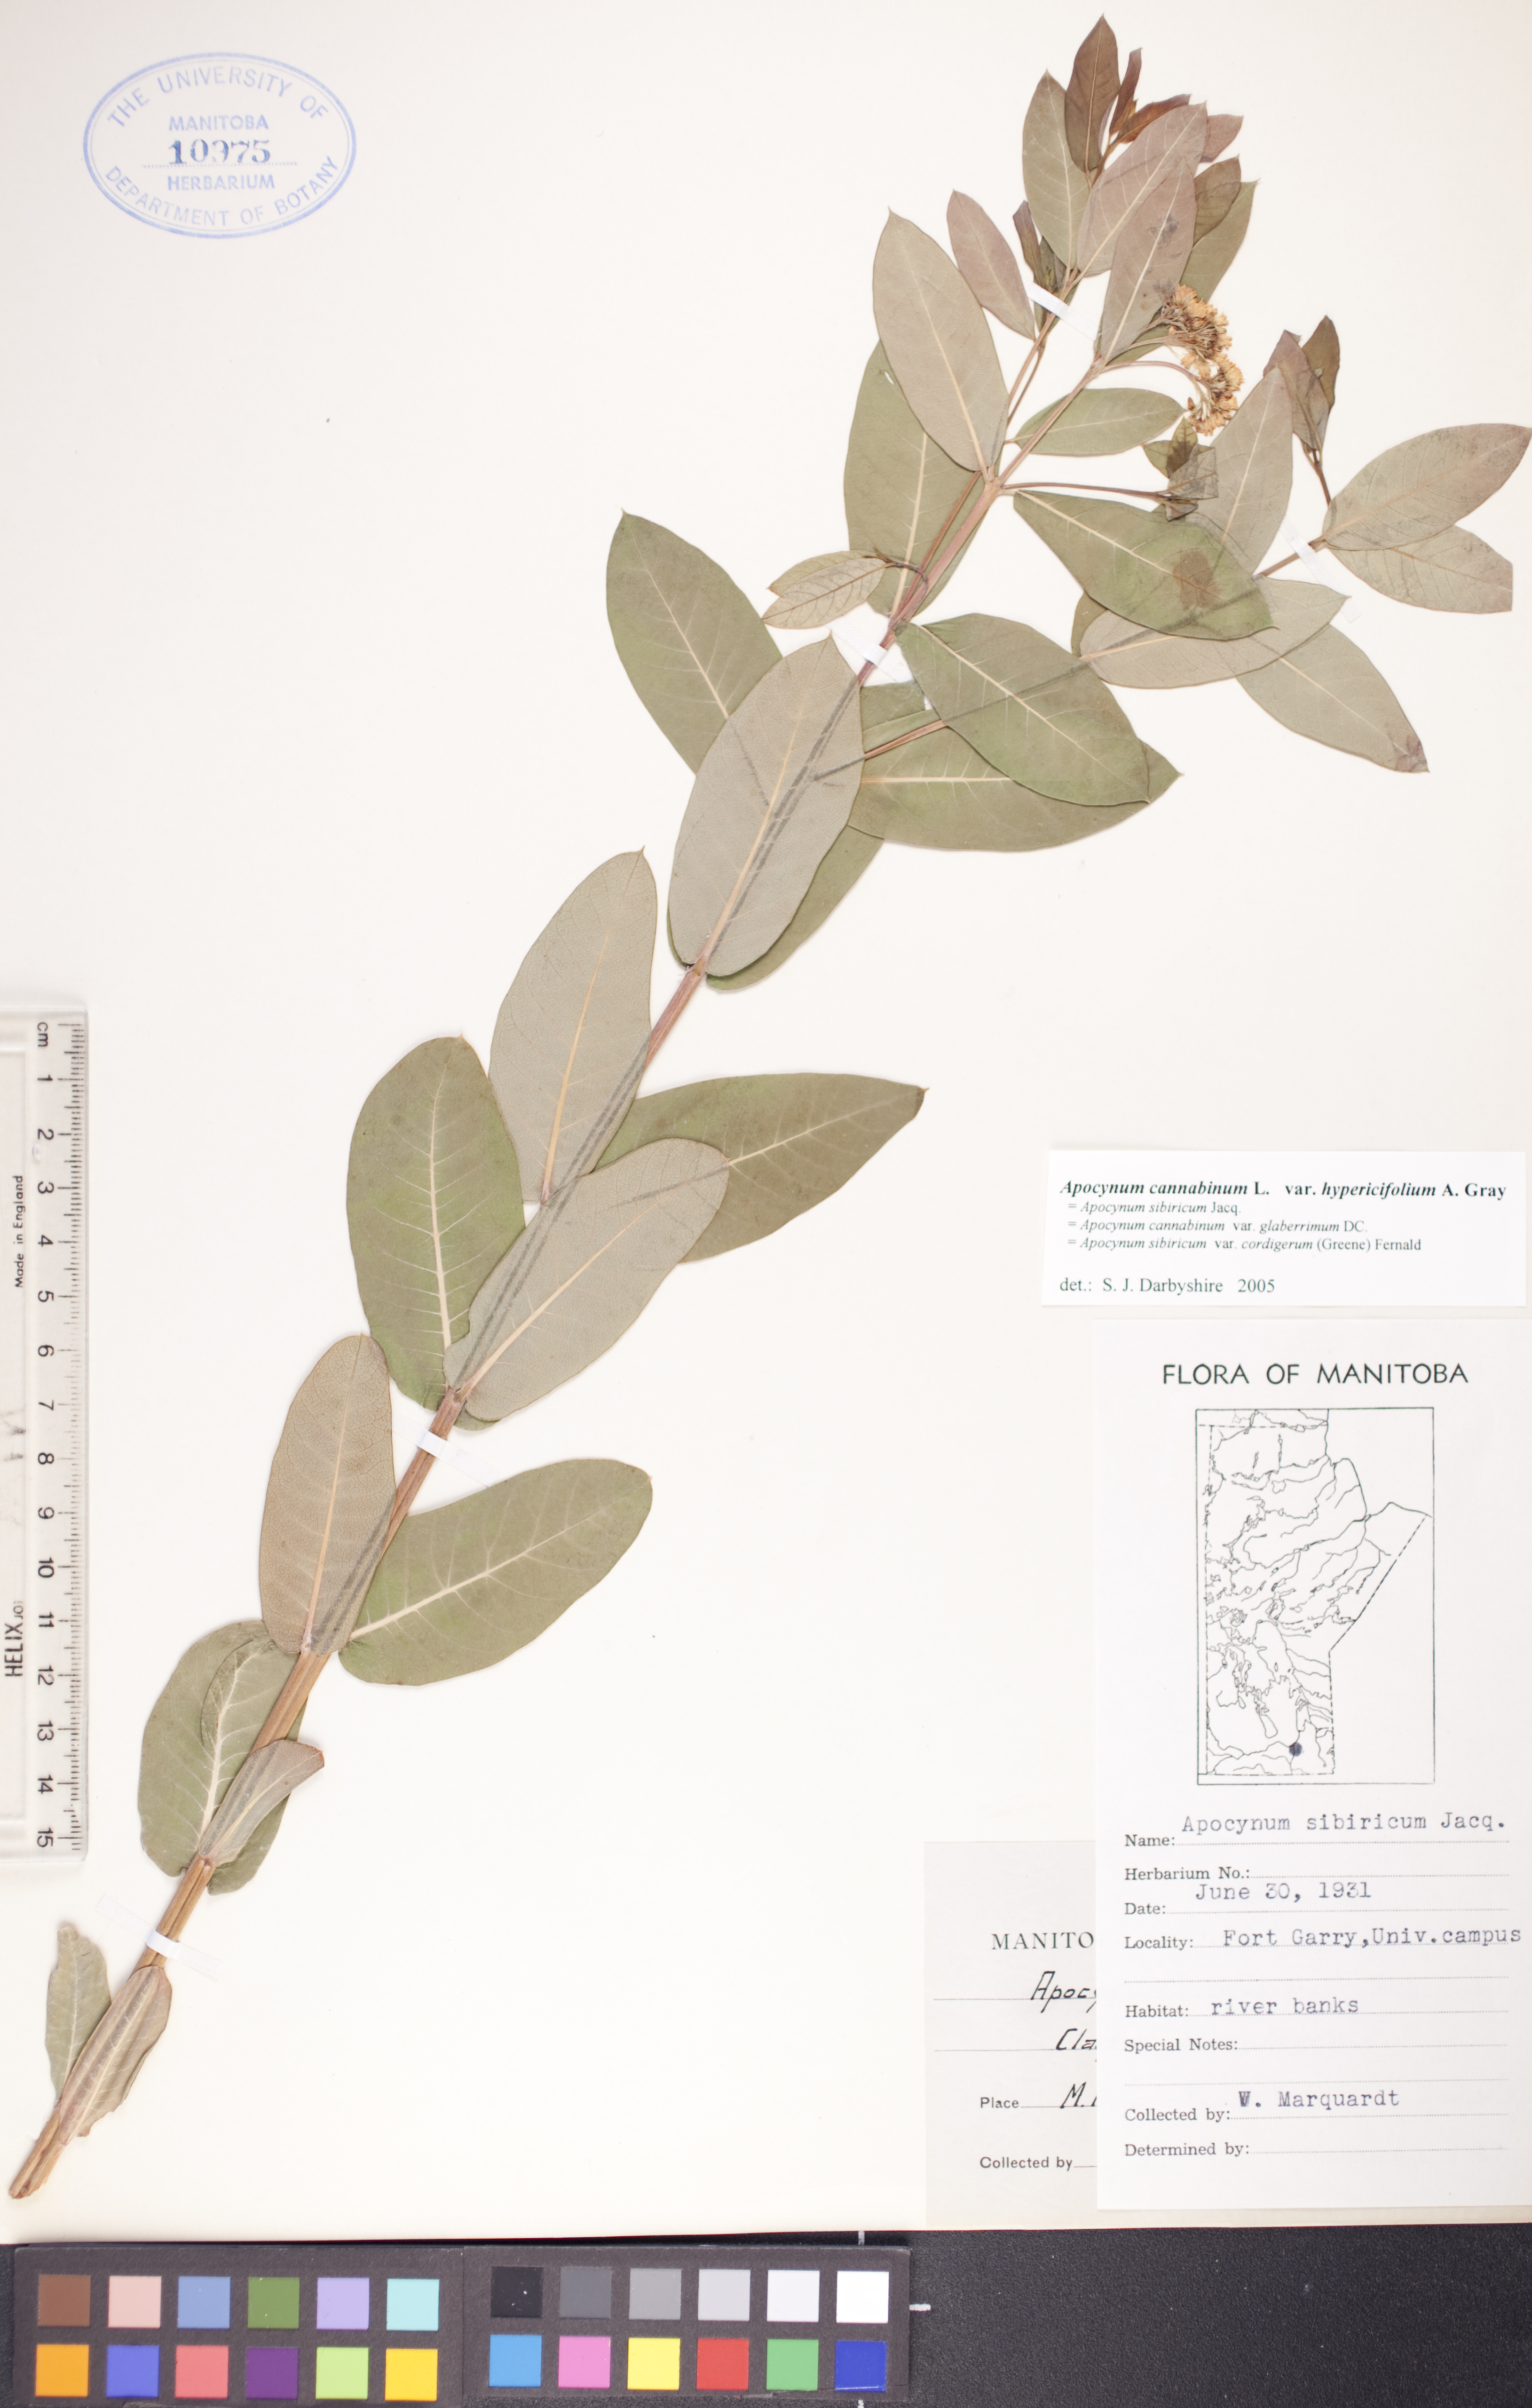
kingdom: Plantae
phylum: Tracheophyta
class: Magnoliopsida
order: Gentianales
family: Apocynaceae
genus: Apocynum
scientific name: Apocynum cannabinum
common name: Hemp dogbane
